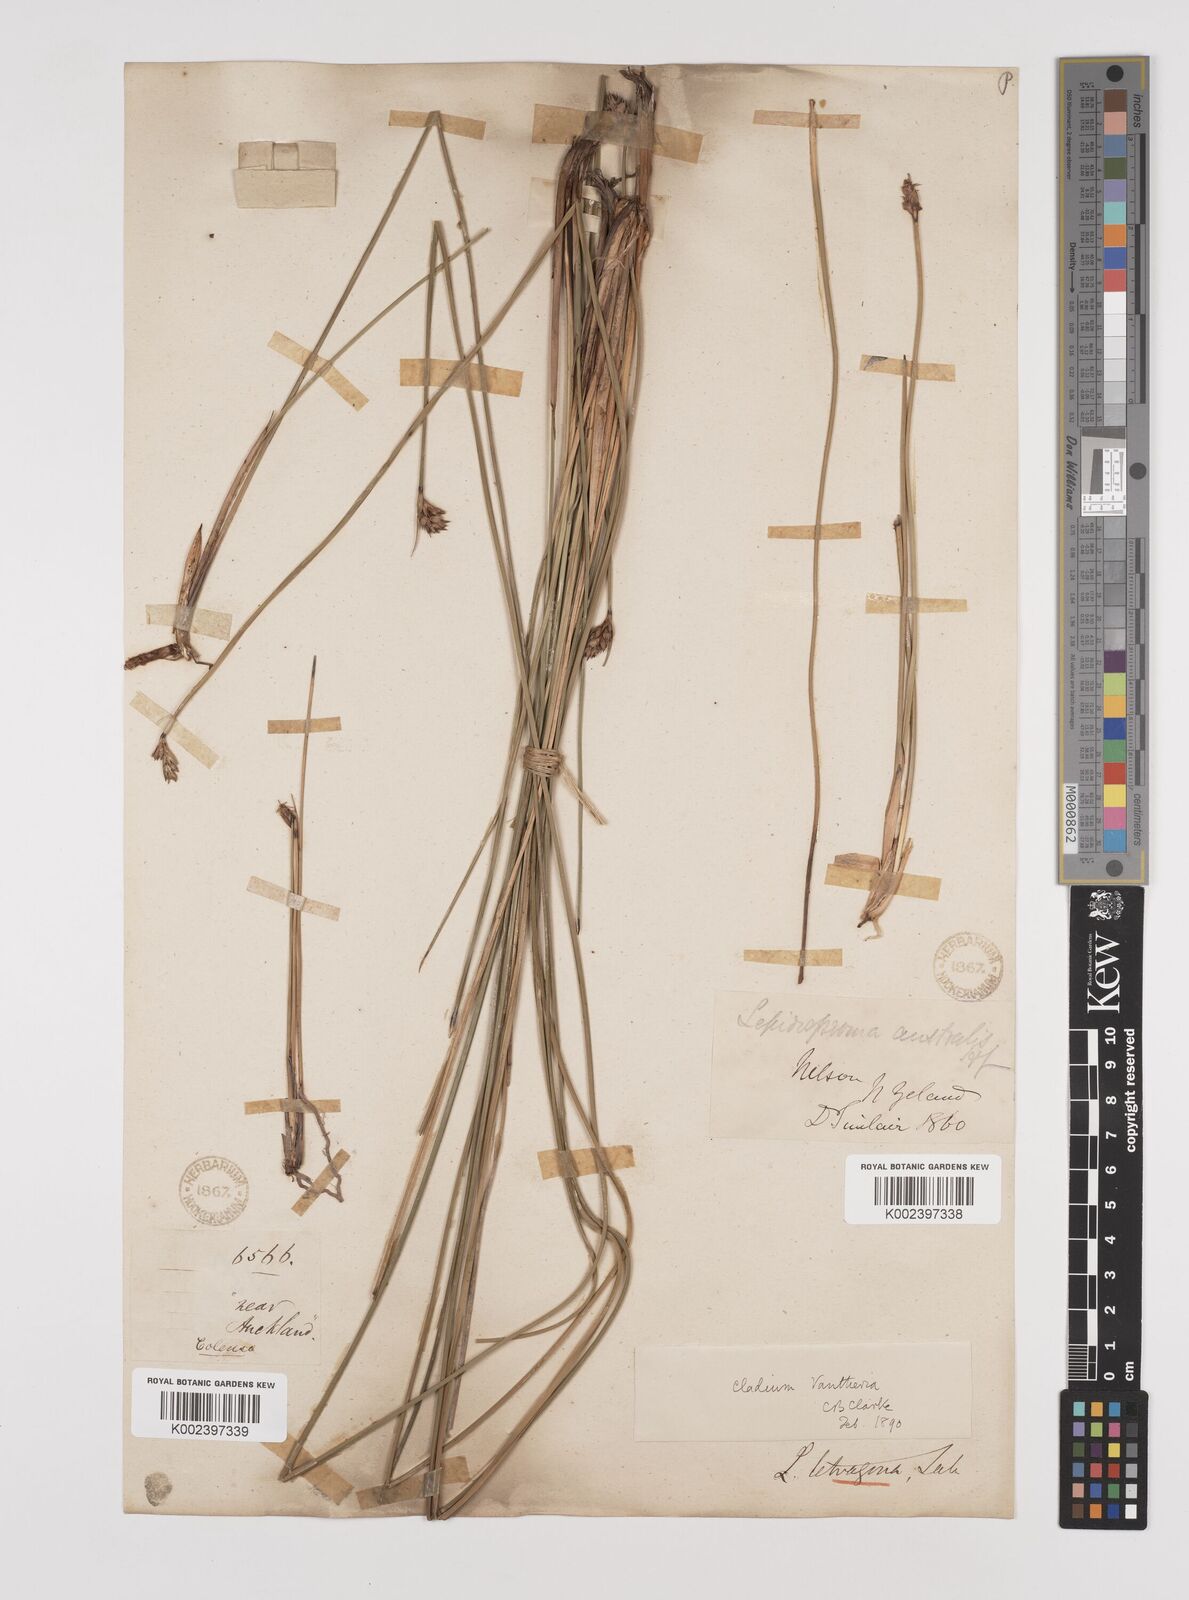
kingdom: Plantae
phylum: Tracheophyta
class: Liliopsida
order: Poales
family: Cyperaceae
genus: Lepidosperma
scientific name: Lepidosperma australe
